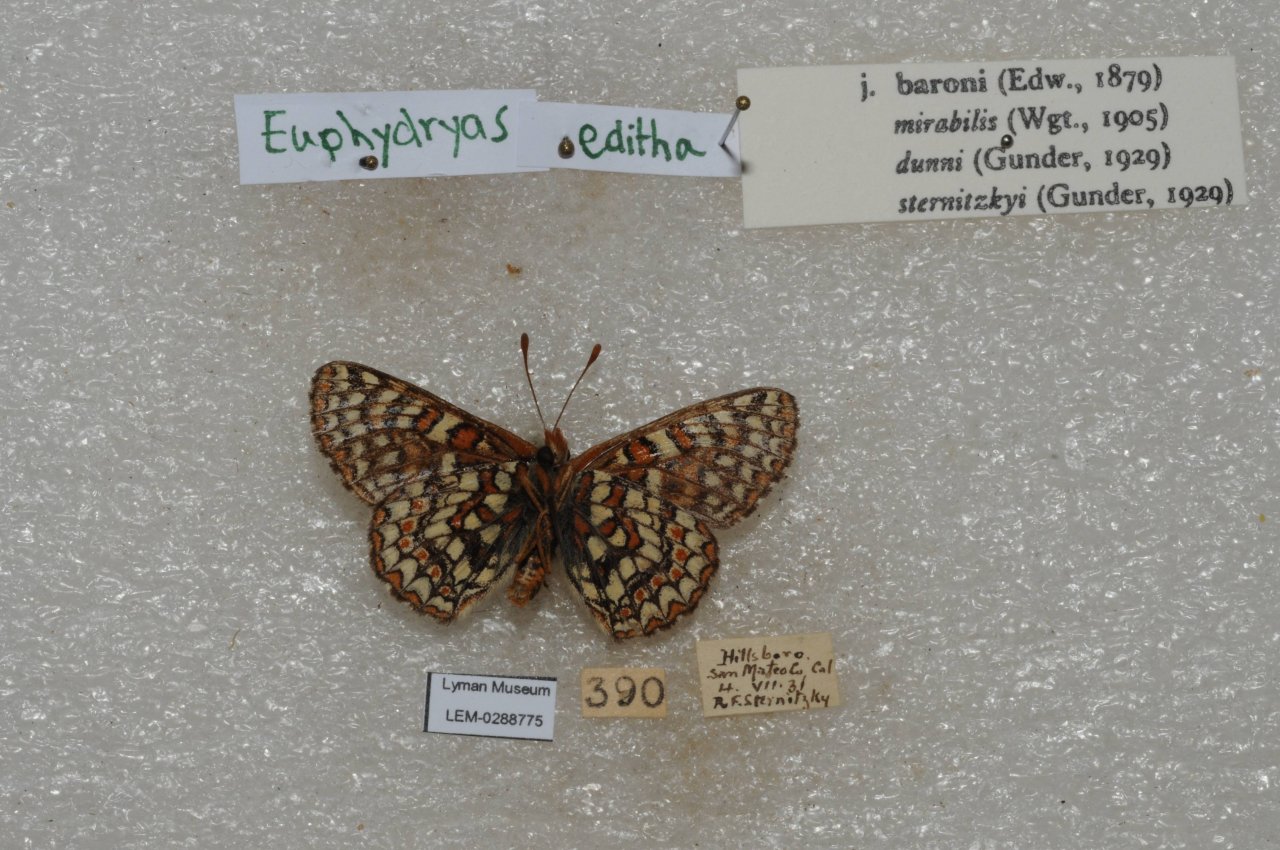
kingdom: Animalia
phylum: Arthropoda
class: Insecta
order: Lepidoptera
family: Nymphalidae
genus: Occidryas
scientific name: Occidryas editha
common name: Edith's Checkerspot
